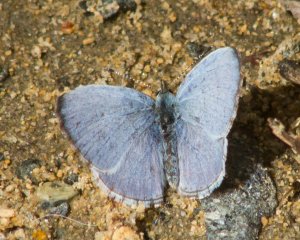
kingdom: Animalia
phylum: Arthropoda
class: Insecta
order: Lepidoptera
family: Lycaenidae
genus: Celastrina
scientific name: Celastrina ladon
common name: Spring Azure
